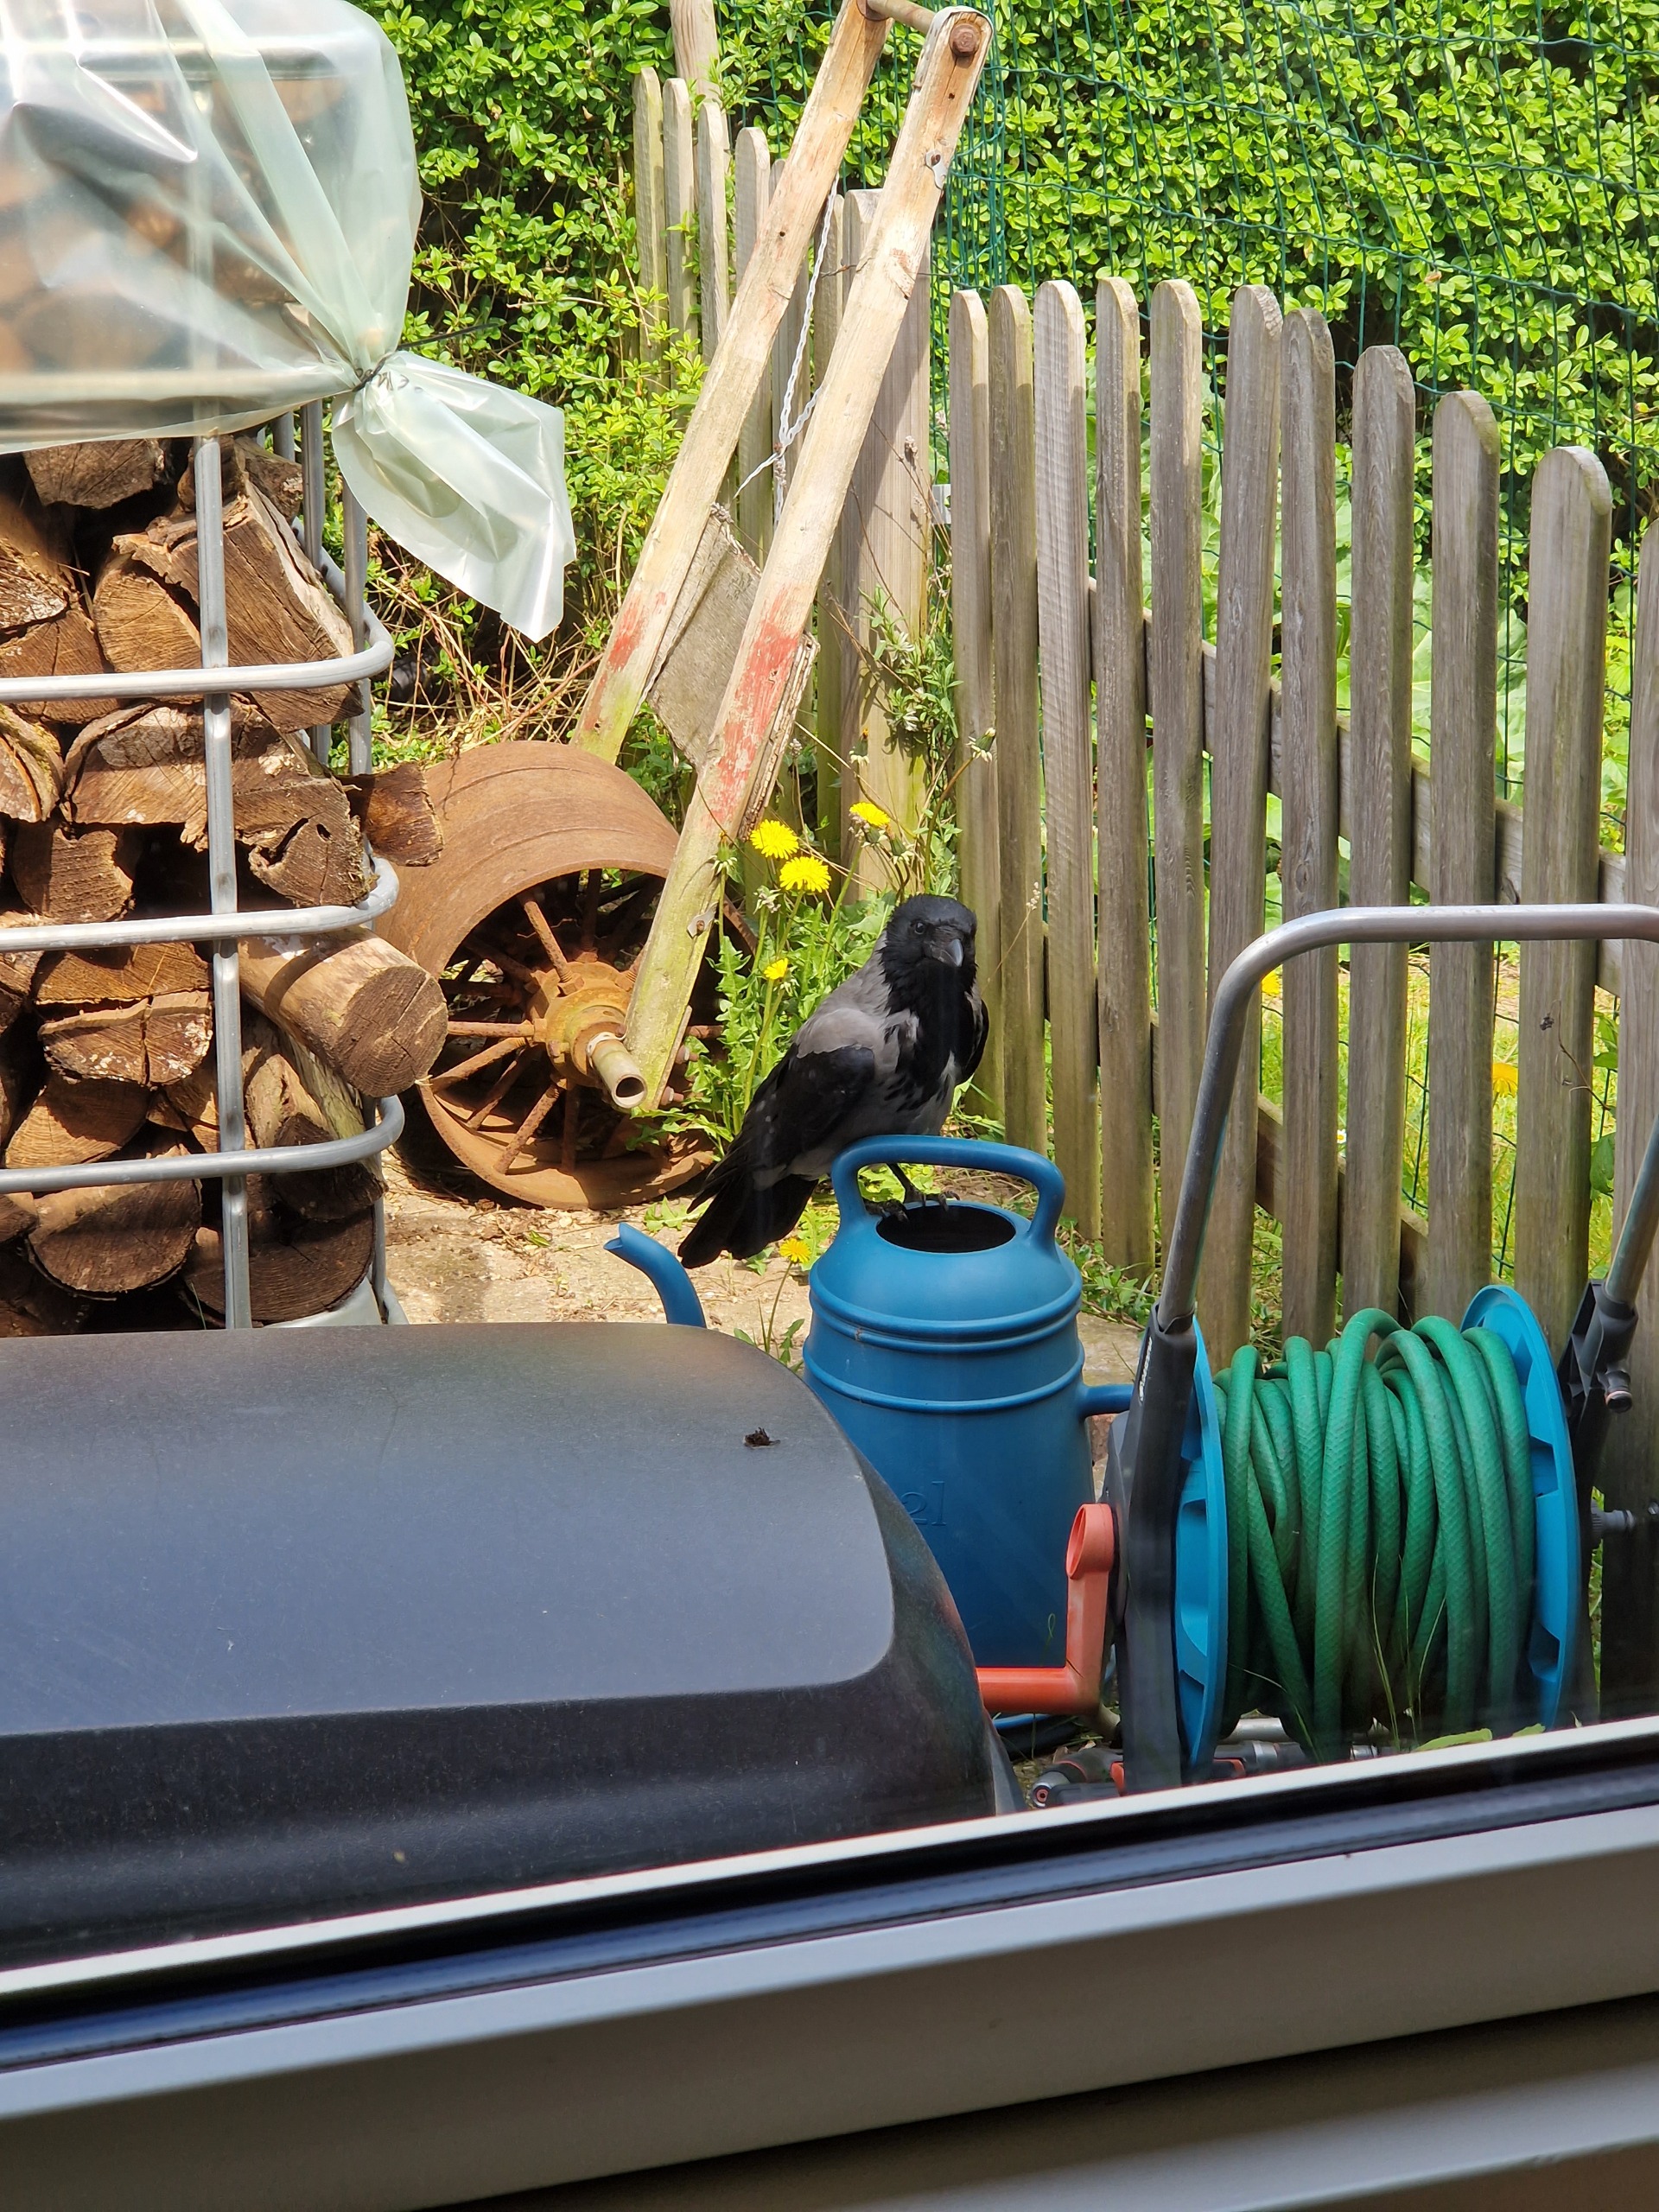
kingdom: Animalia
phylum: Chordata
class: Aves
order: Passeriformes
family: Corvidae
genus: Corvus
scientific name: Corvus cornix
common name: Gråkrage
